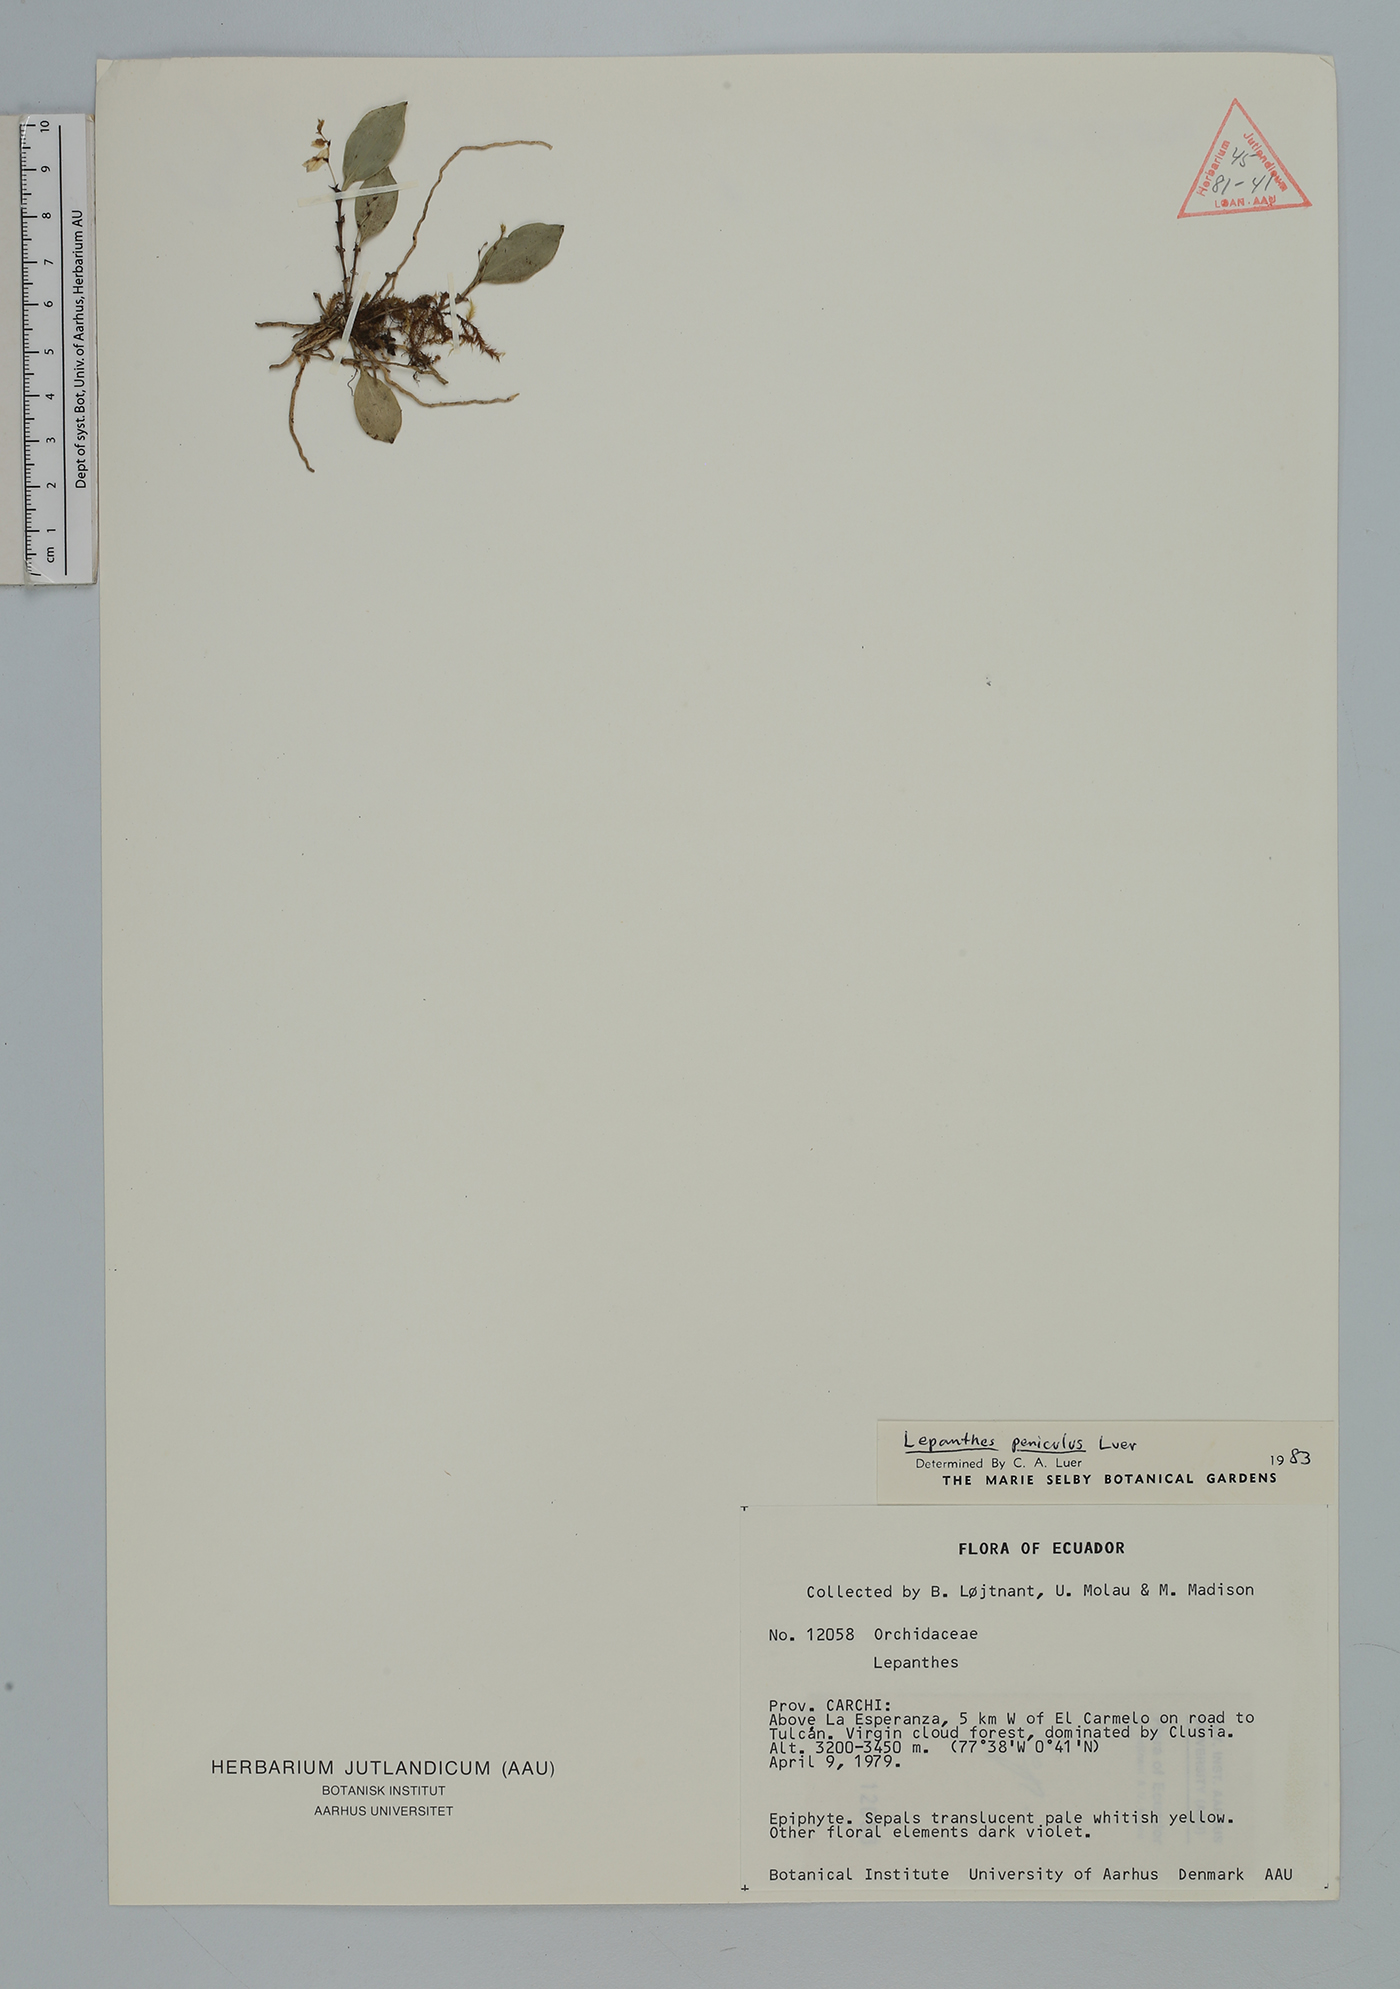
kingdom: Plantae
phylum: Tracheophyta
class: Liliopsida
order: Asparagales
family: Orchidaceae
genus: Lepanthes
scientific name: Lepanthes
